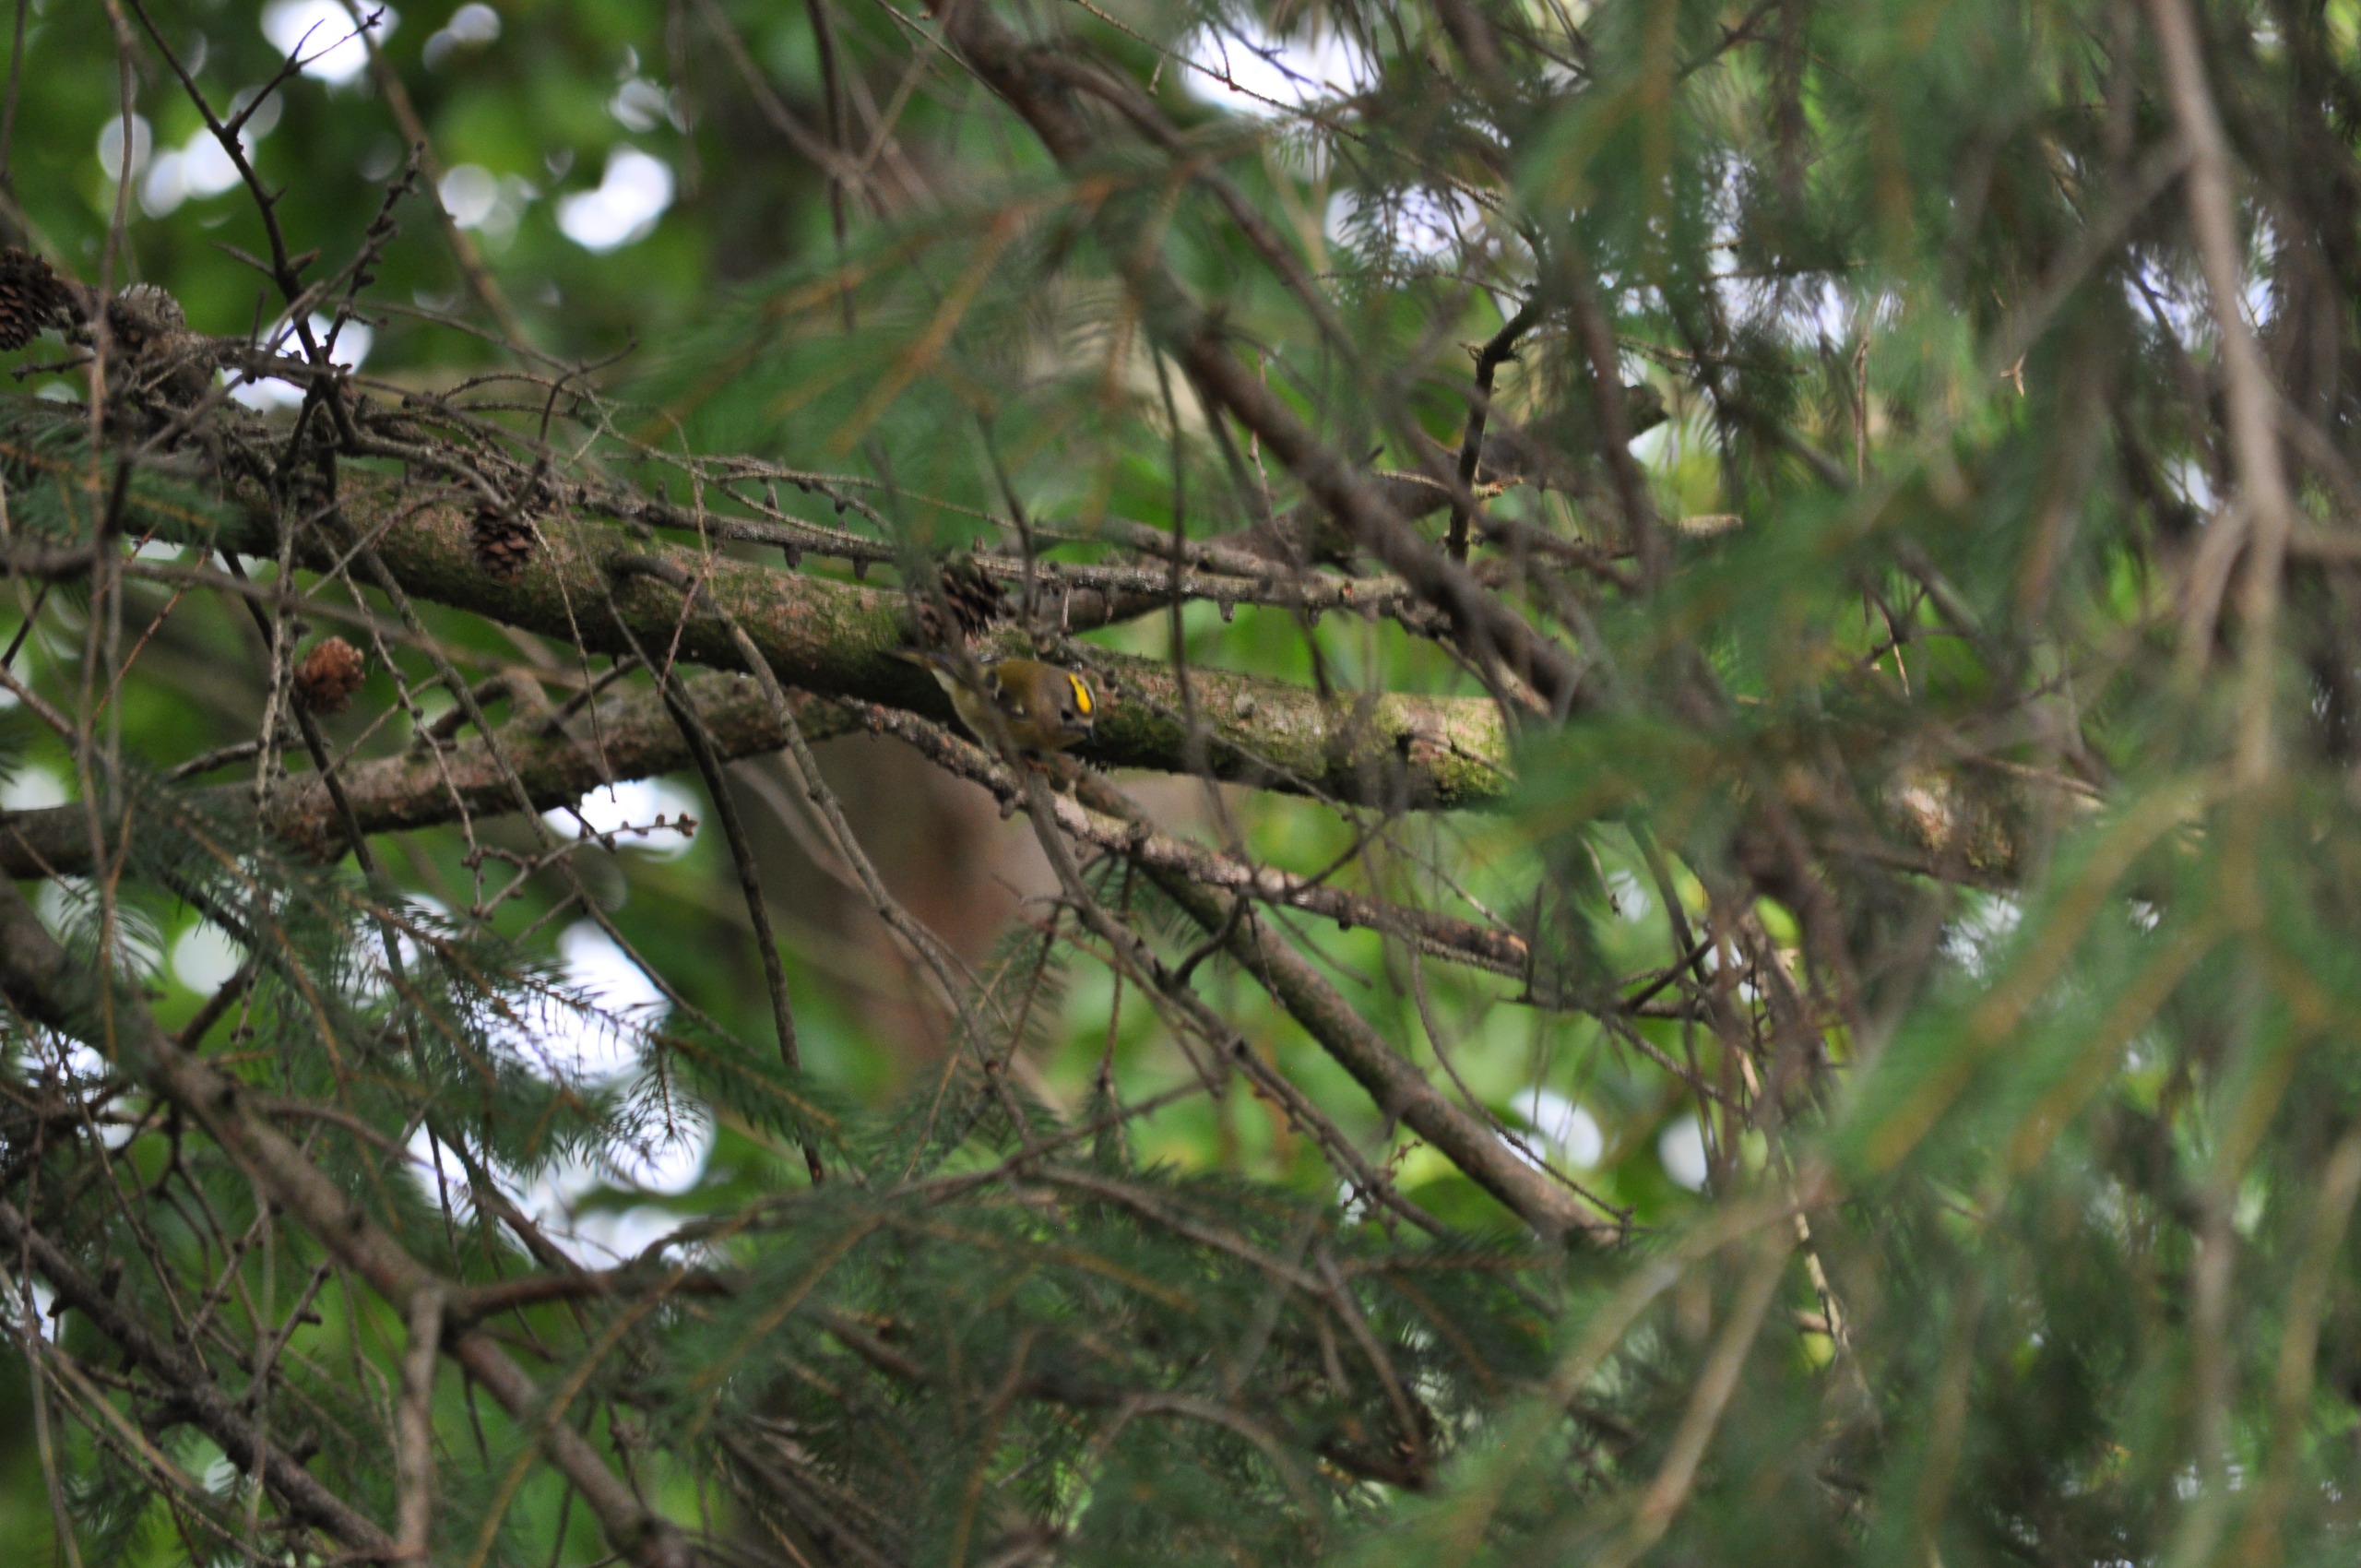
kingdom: Animalia
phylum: Chordata
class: Aves
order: Passeriformes
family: Regulidae
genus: Regulus
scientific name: Regulus regulus
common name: Fuglekonge
